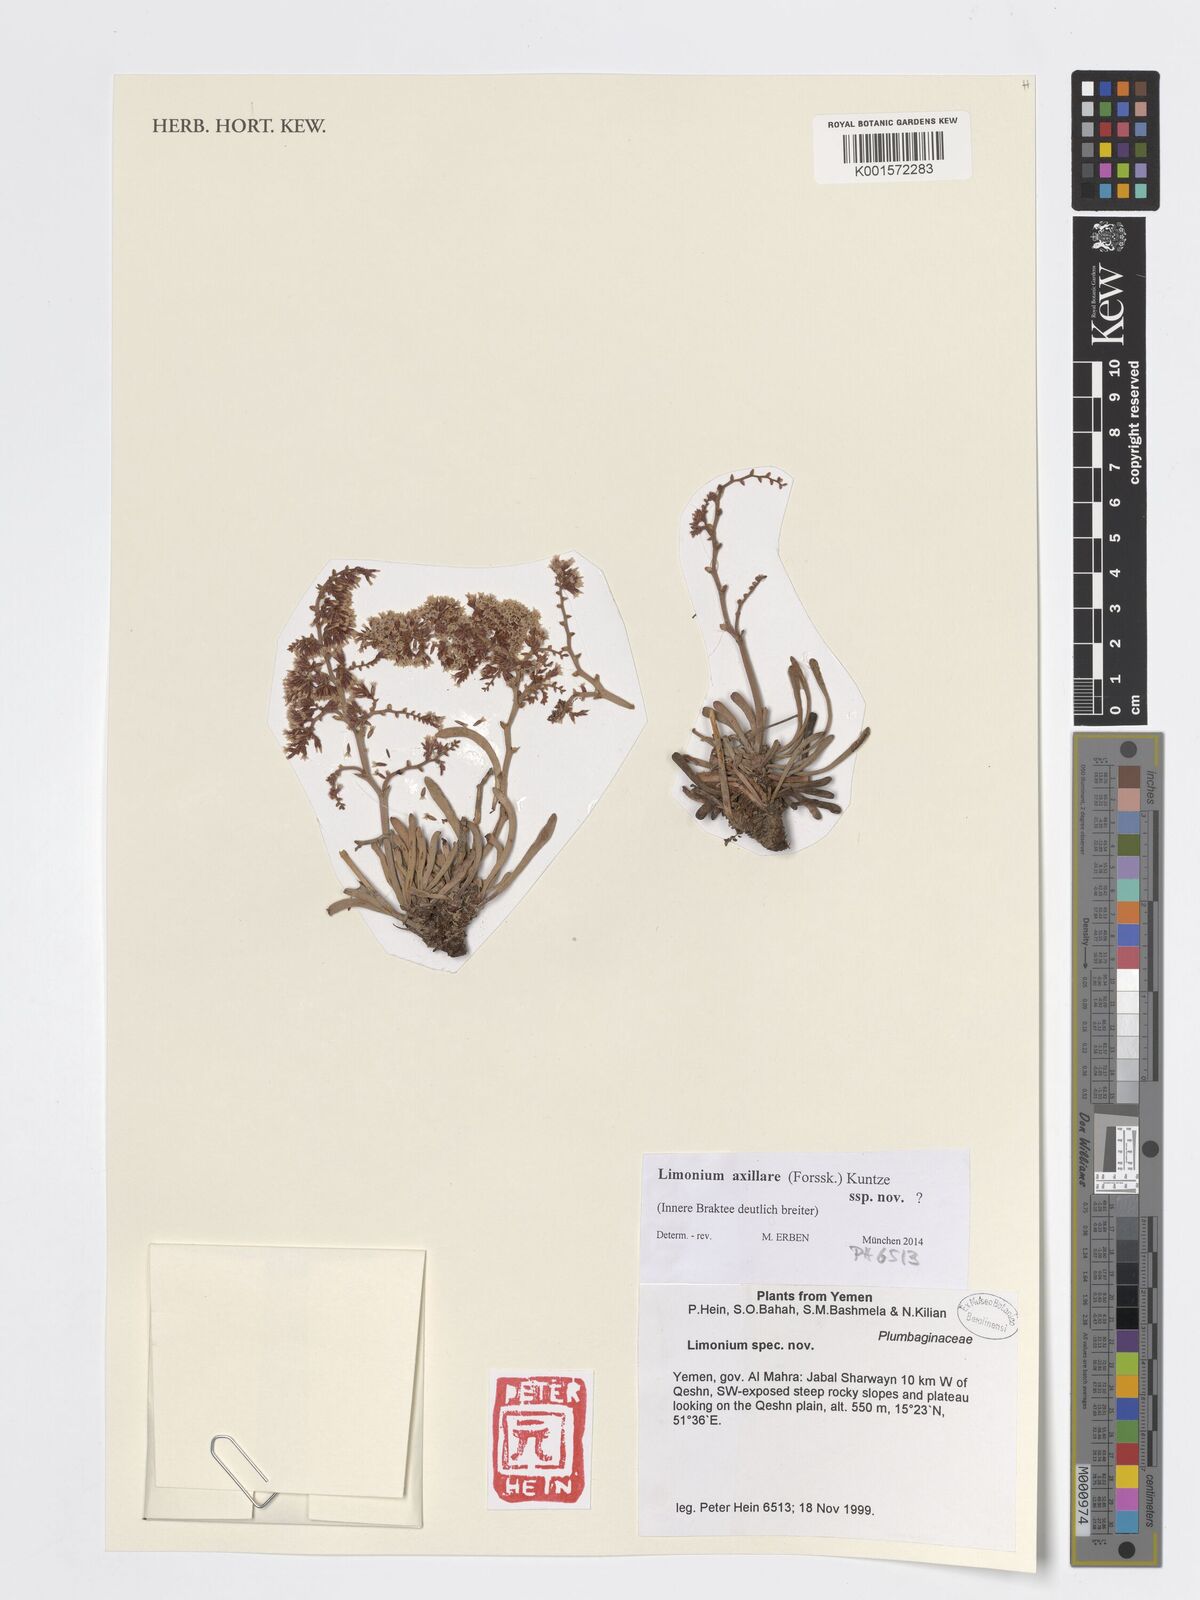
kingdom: Plantae
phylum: Tracheophyta
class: Magnoliopsida
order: Caryophyllales
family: Plumbaginaceae
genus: Limonium
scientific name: Limonium axillare
